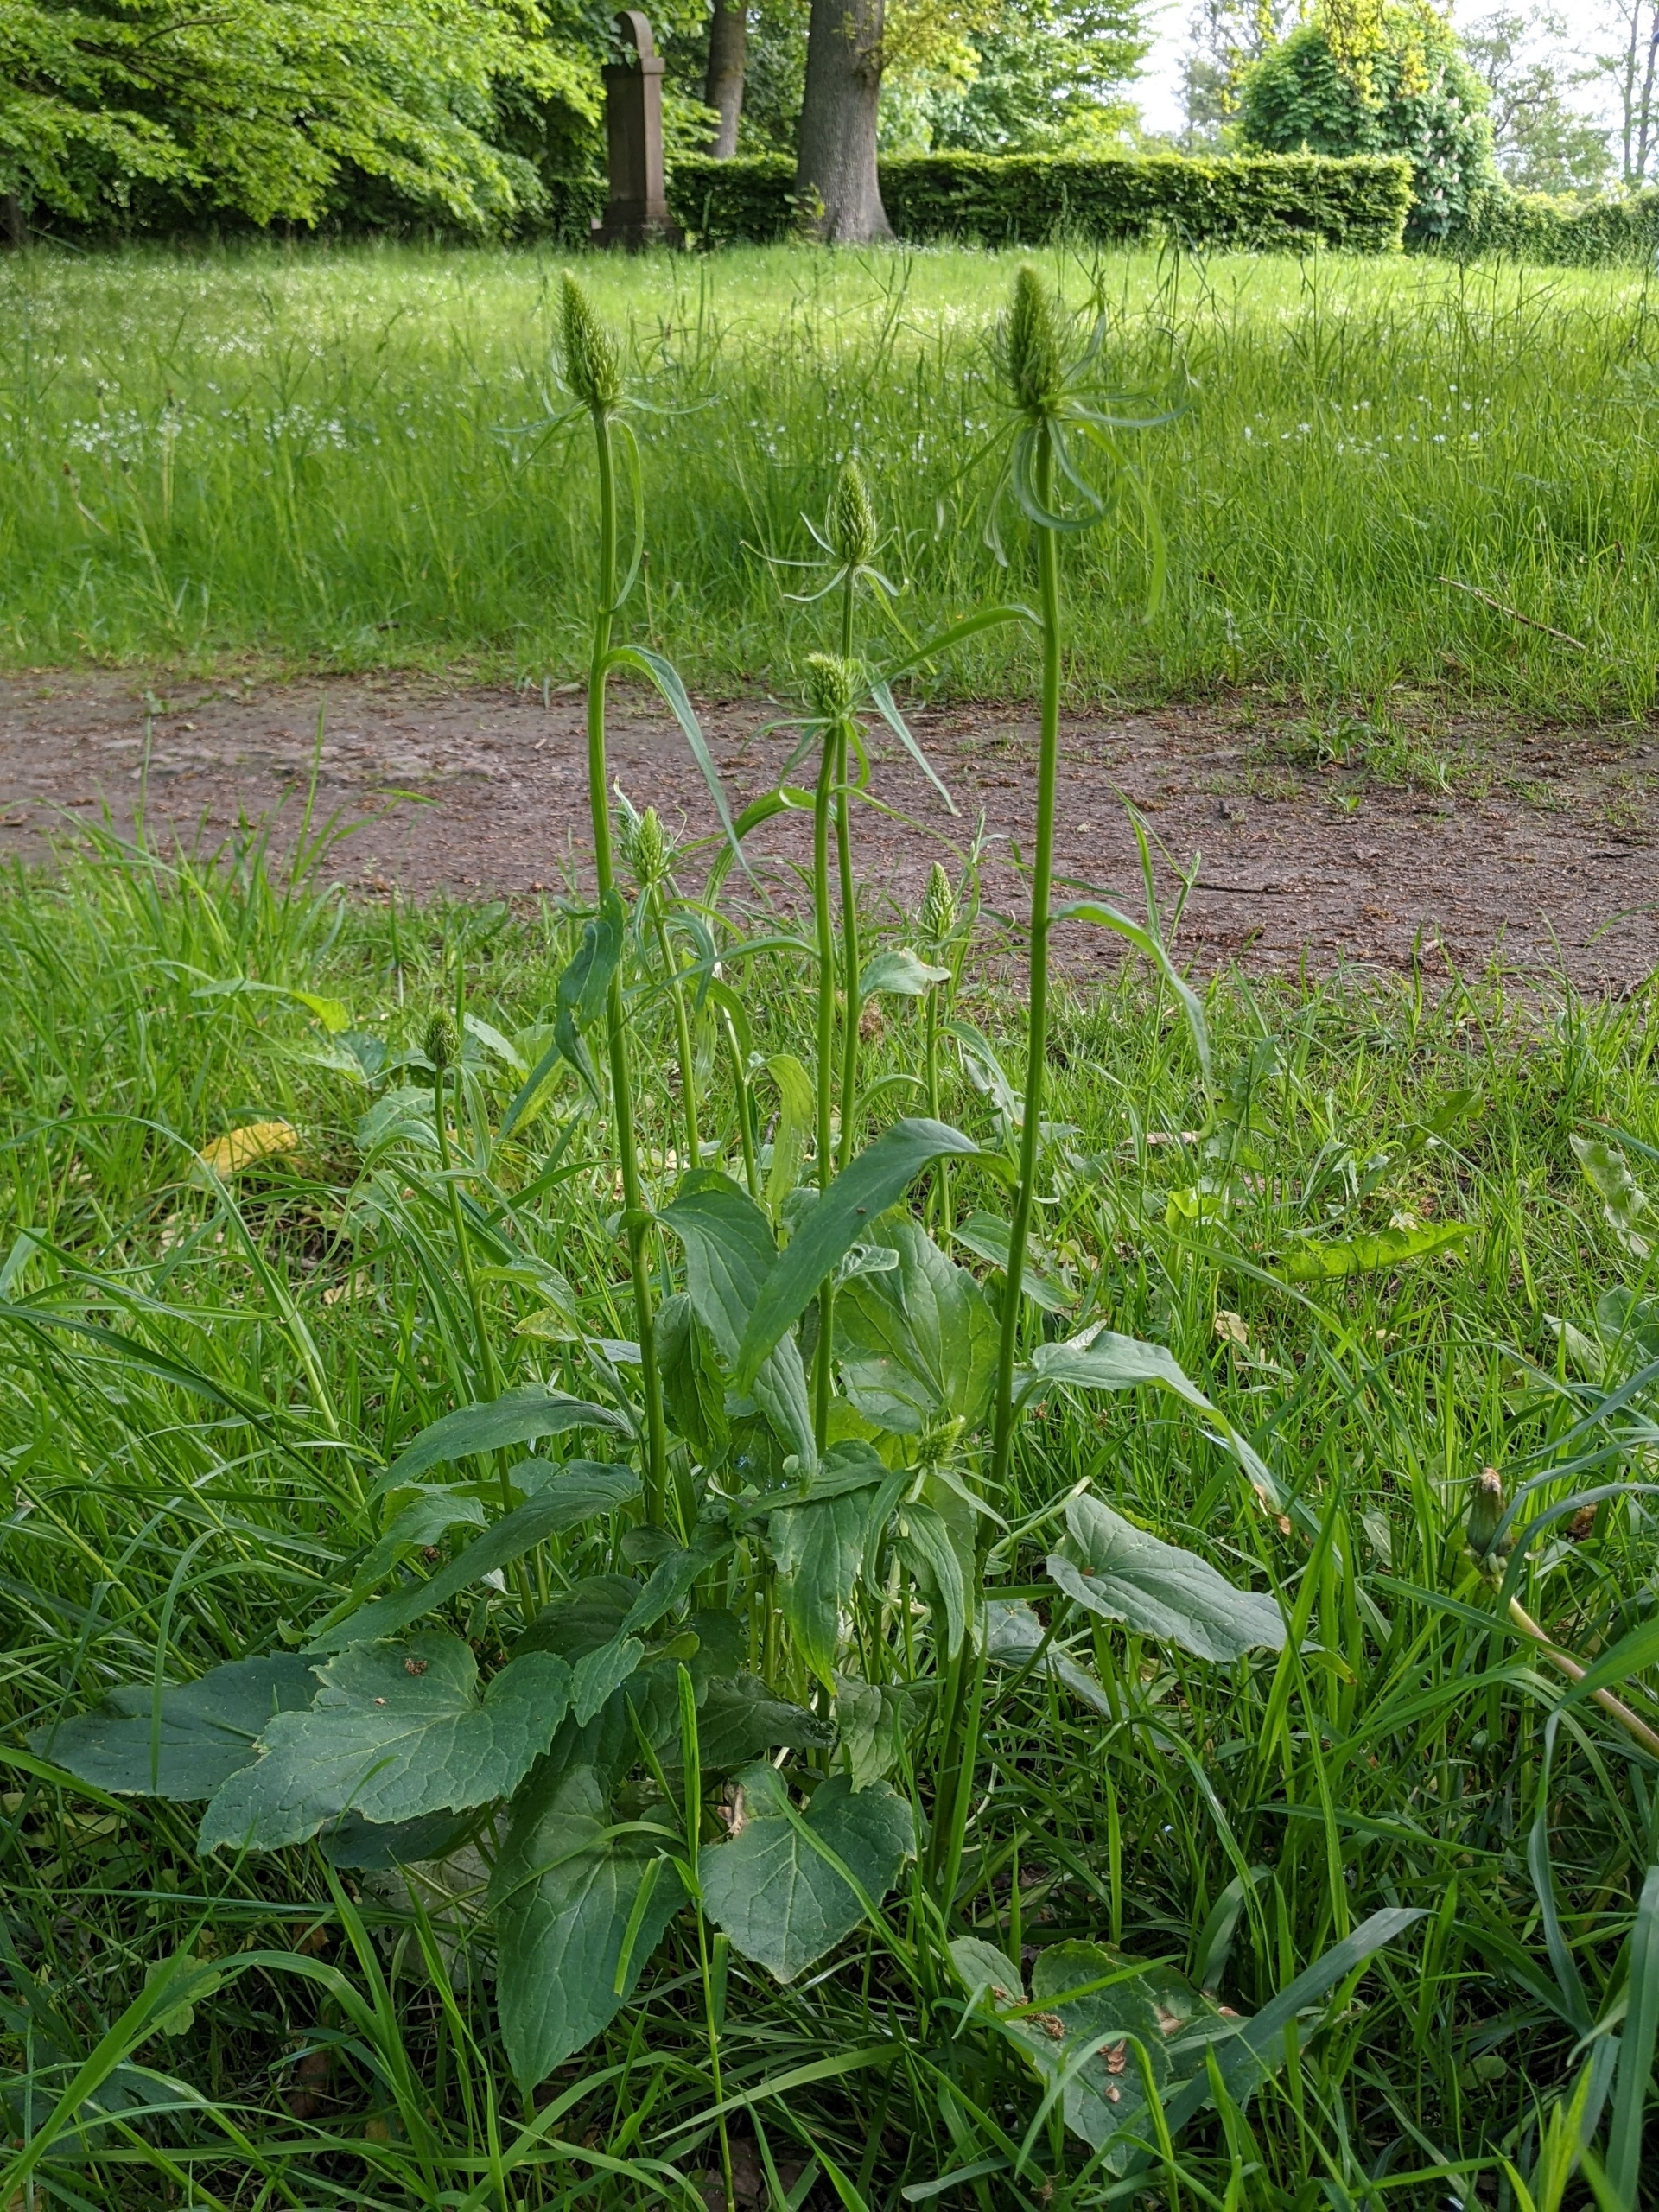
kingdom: Plantae
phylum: Tracheophyta
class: Magnoliopsida
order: Asterales
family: Campanulaceae
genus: Phyteuma
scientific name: Phyteuma spicatum
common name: Aks-rapunsel
